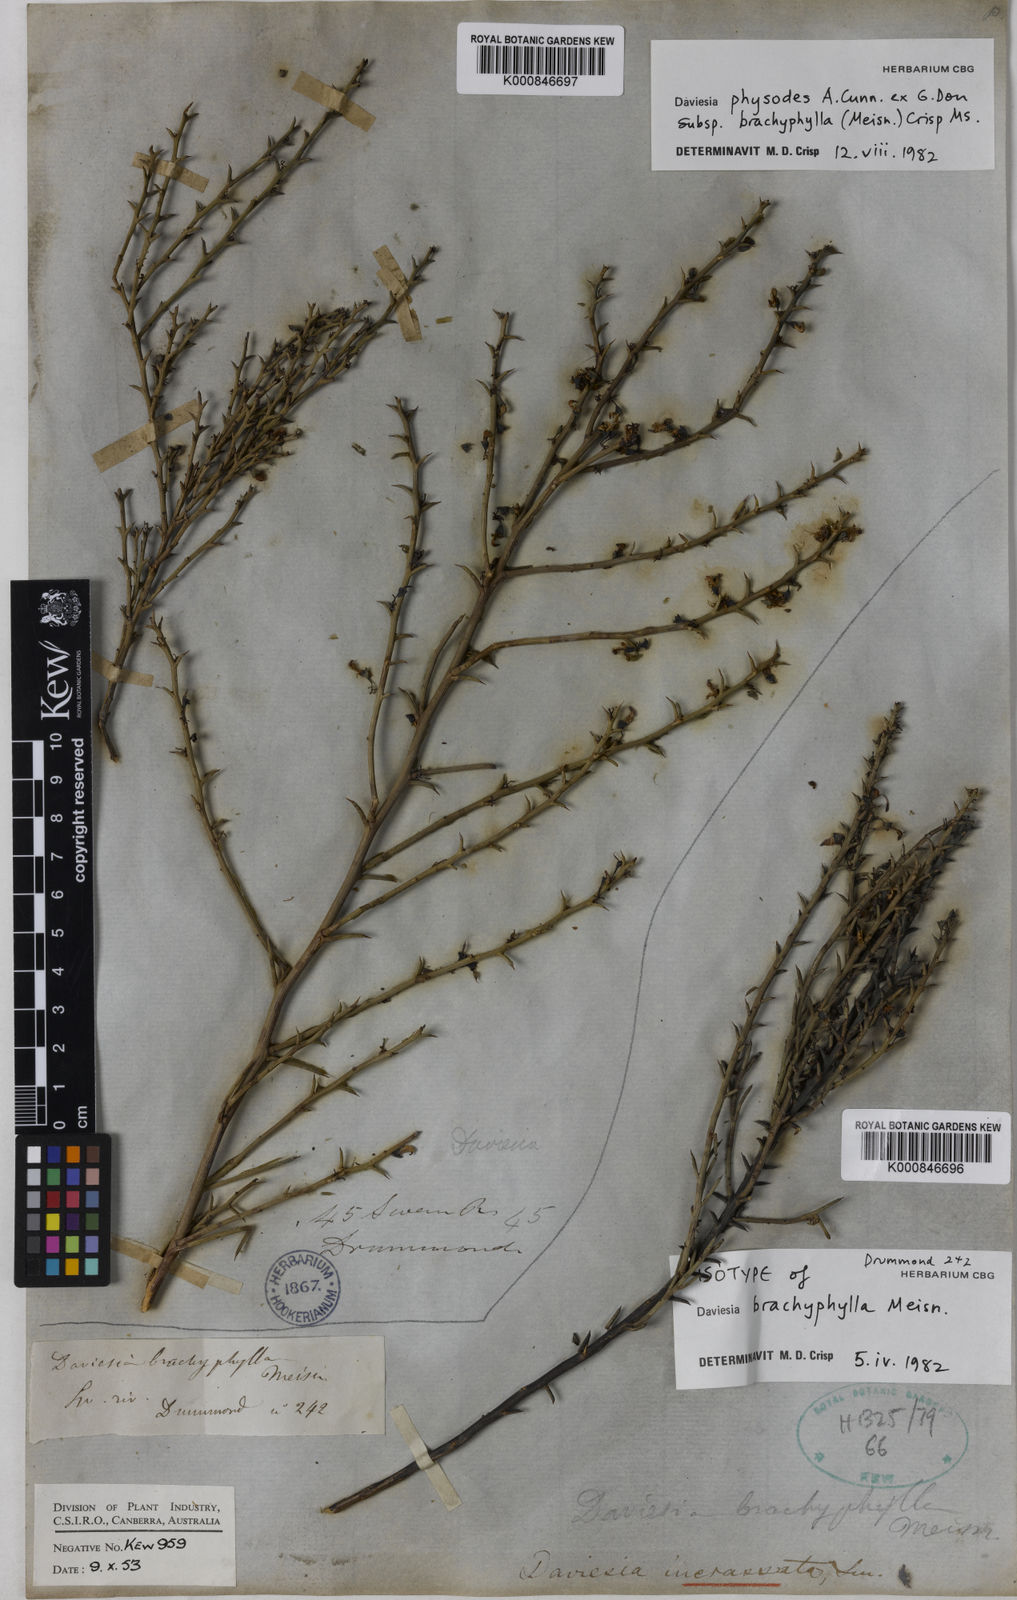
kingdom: Plantae
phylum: Tracheophyta
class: Magnoliopsida
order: Fabales
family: Fabaceae
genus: Daviesia
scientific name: Daviesia physodes
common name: Prickly bitter pea
